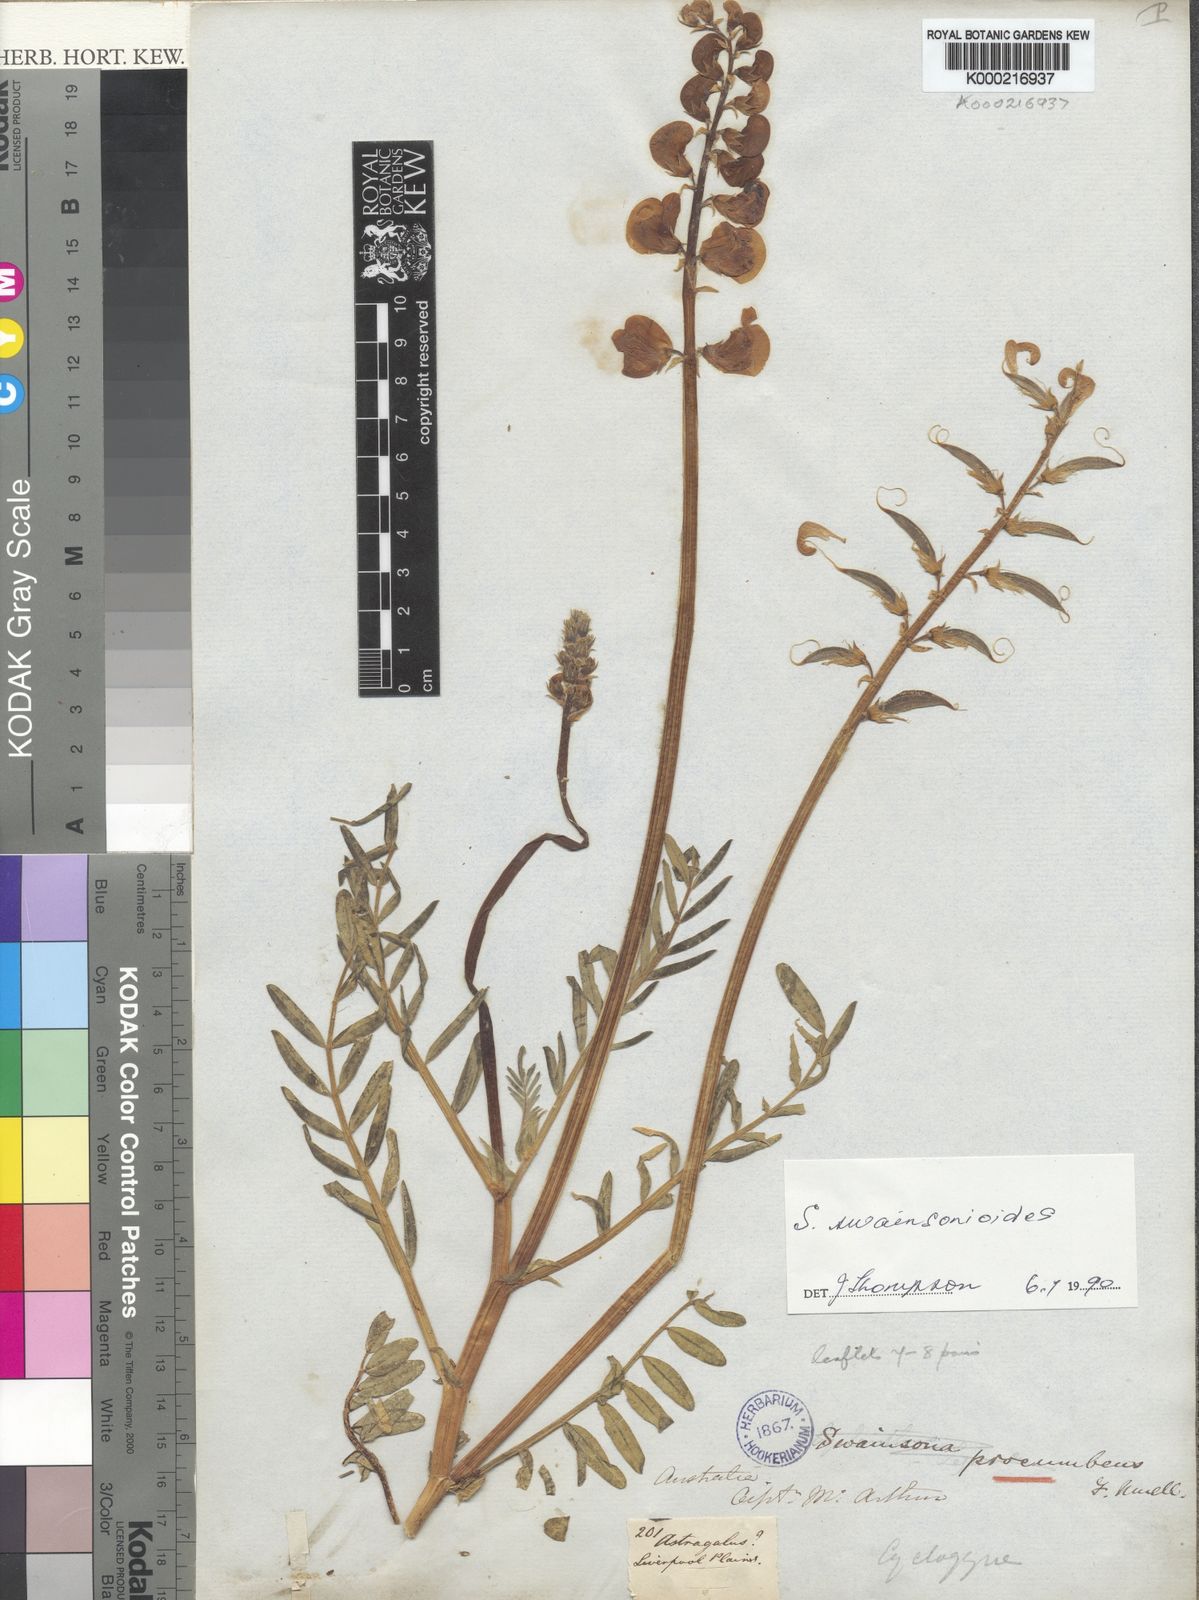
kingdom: Plantae
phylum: Tracheophyta
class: Magnoliopsida
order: Fabales
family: Fabaceae
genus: Swainsona
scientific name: Swainsona swainsonioides
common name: Downy swainsona
